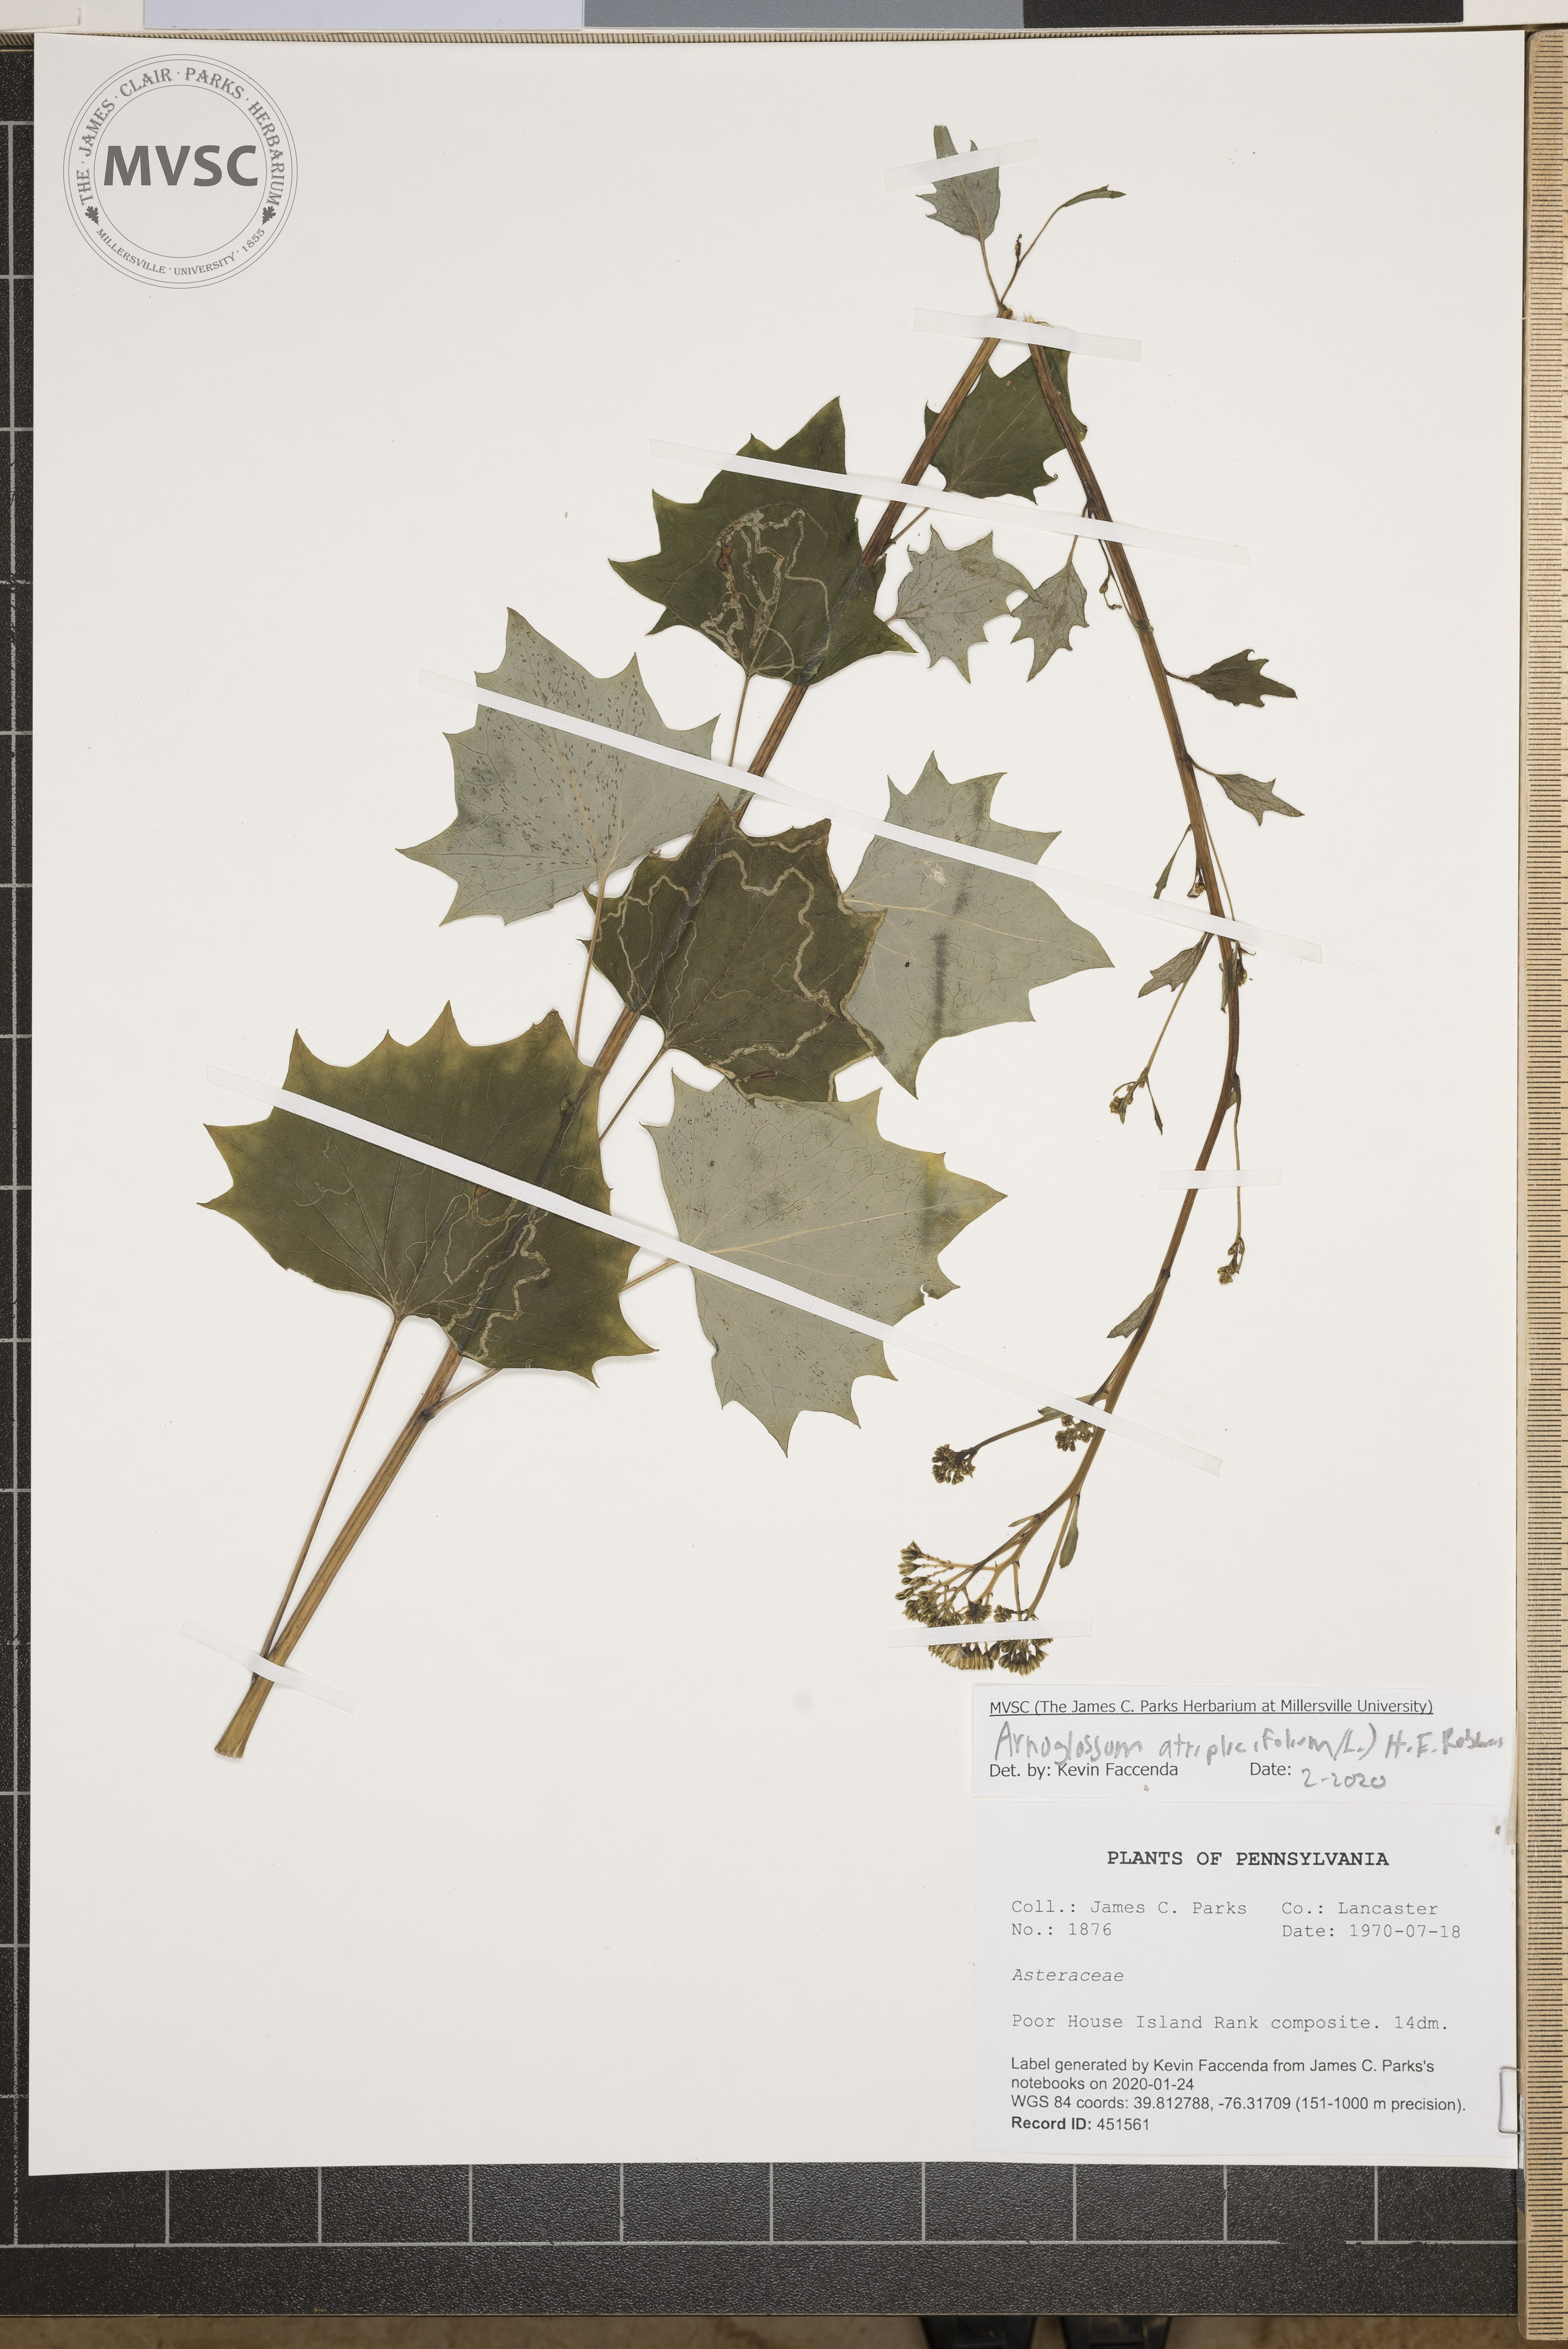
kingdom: Plantae
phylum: Tracheophyta
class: Magnoliopsida
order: Asterales
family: Asteraceae
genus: Arnoglossum
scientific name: Arnoglossum atriplicifolium
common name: Pale indian-plantain
